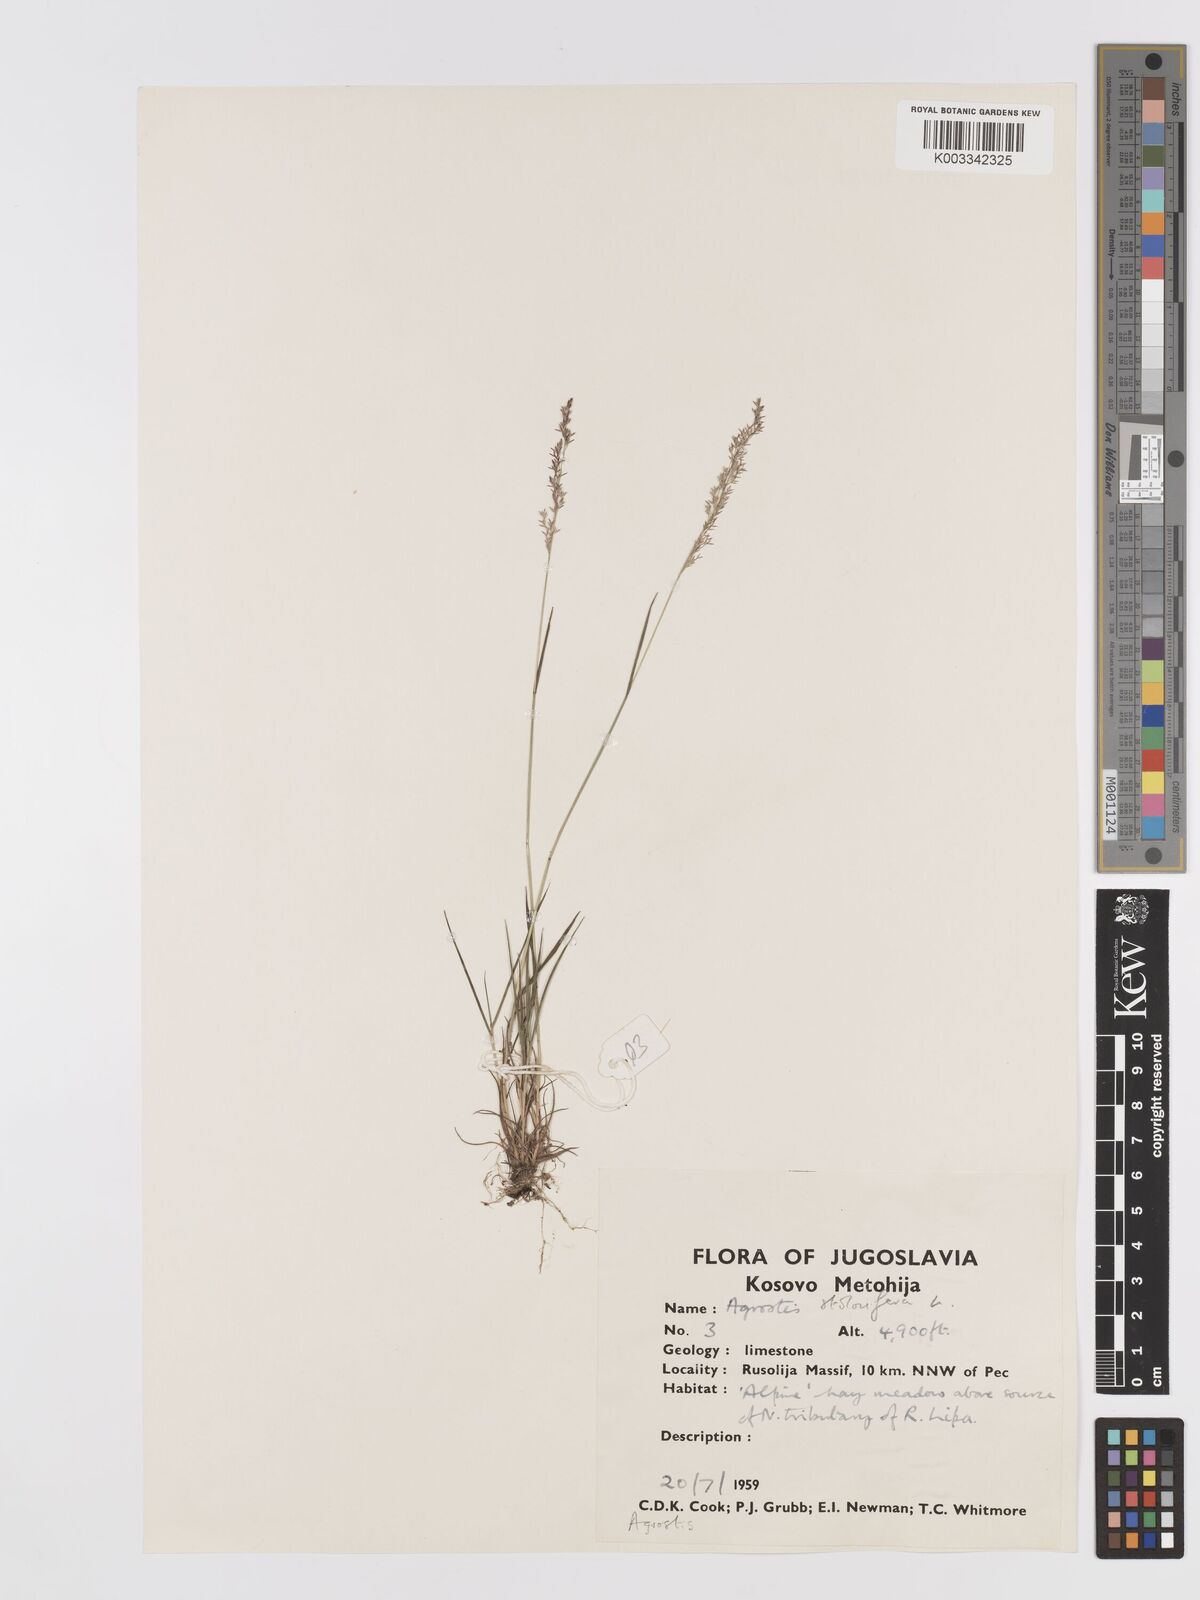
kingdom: Plantae
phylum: Tracheophyta
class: Liliopsida
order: Poales
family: Poaceae
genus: Agrostis
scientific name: Agrostis gigantea
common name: Black bent
